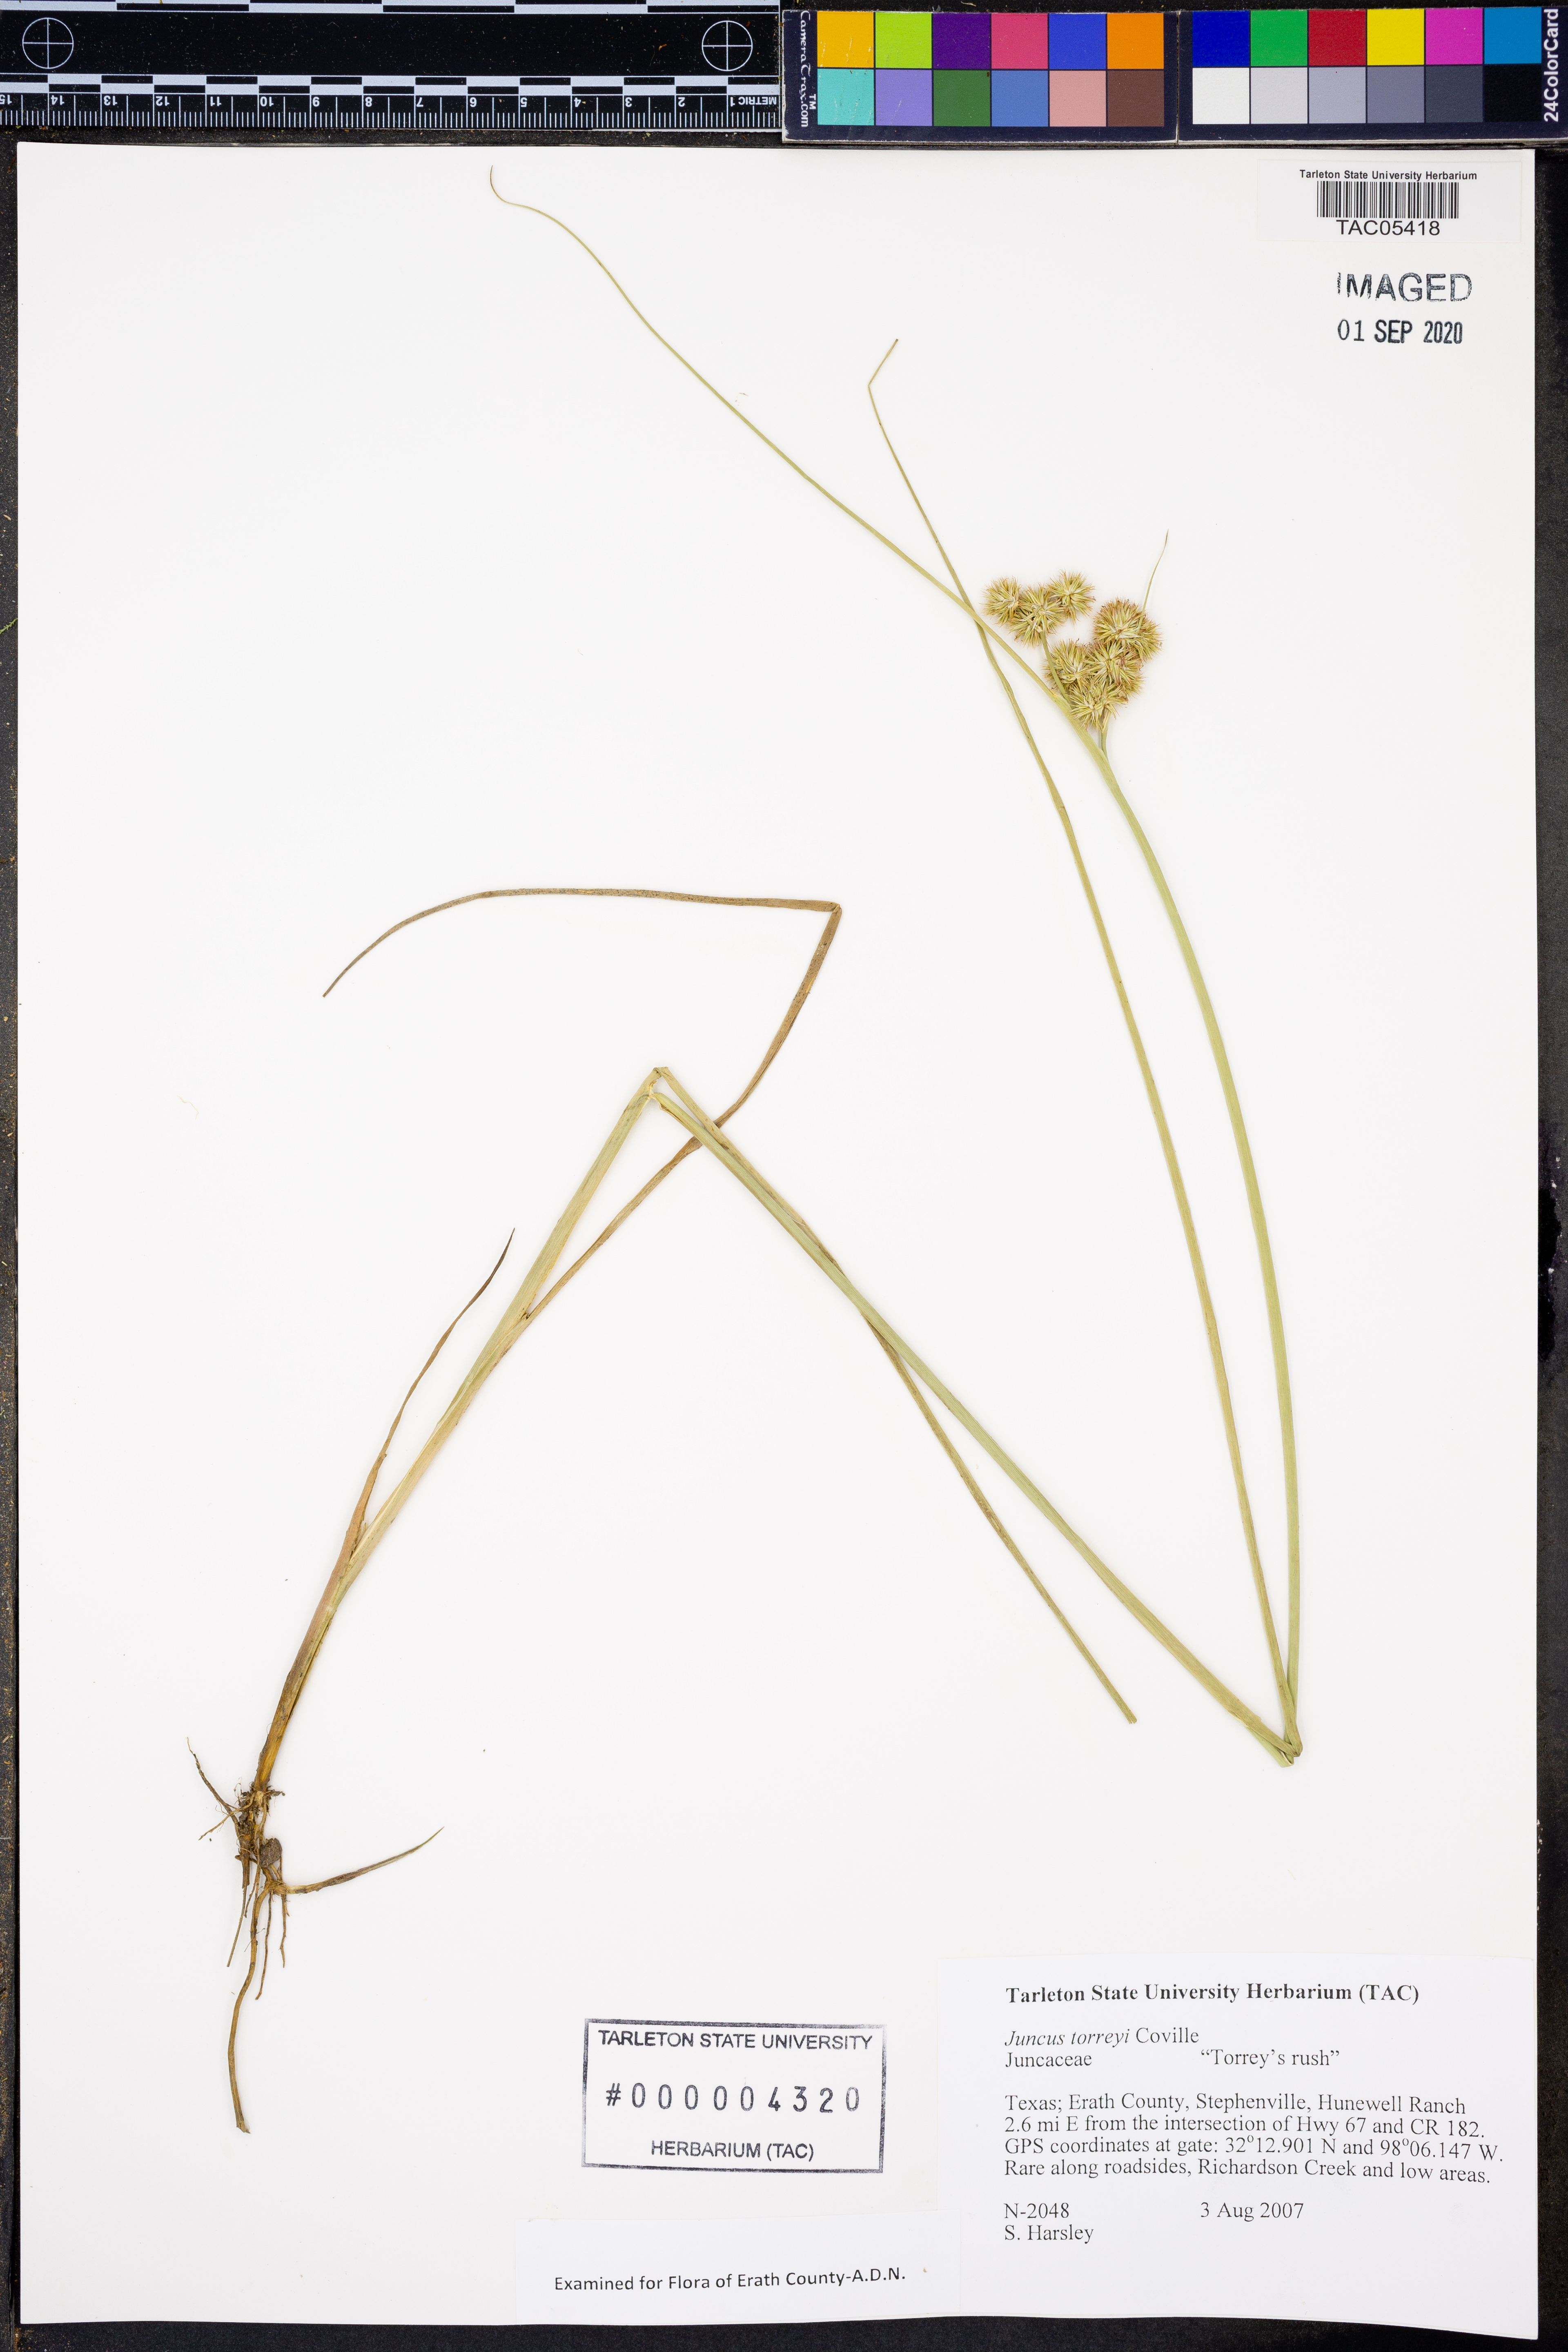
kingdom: Plantae
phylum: Tracheophyta
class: Liliopsida
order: Poales
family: Juncaceae
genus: Juncus
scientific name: Juncus torreyi
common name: Torrey's rush
